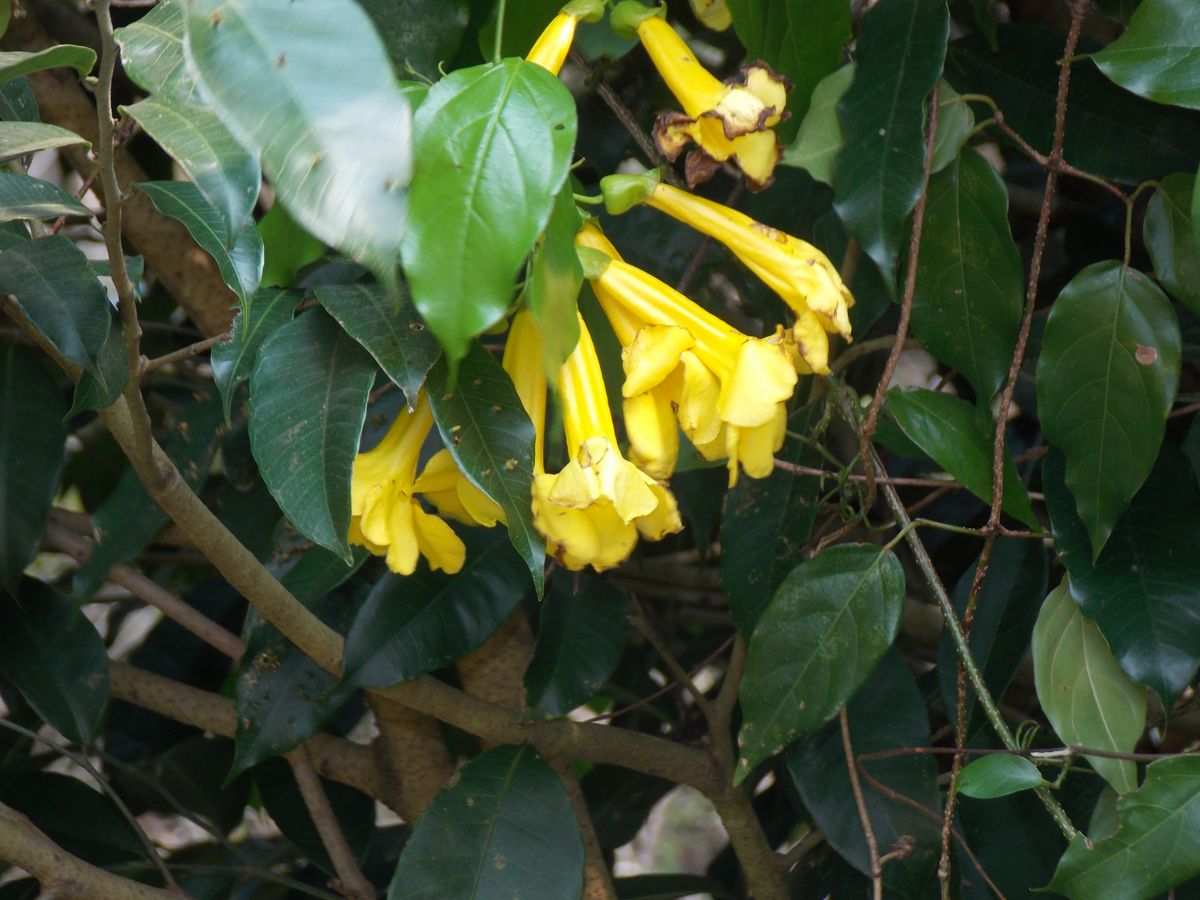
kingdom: Plantae
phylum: Tracheophyta
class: Magnoliopsida
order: Lamiales
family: Bignoniaceae
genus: Dolichandra
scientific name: Dolichandra unguis-cati
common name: Catclaw vine
